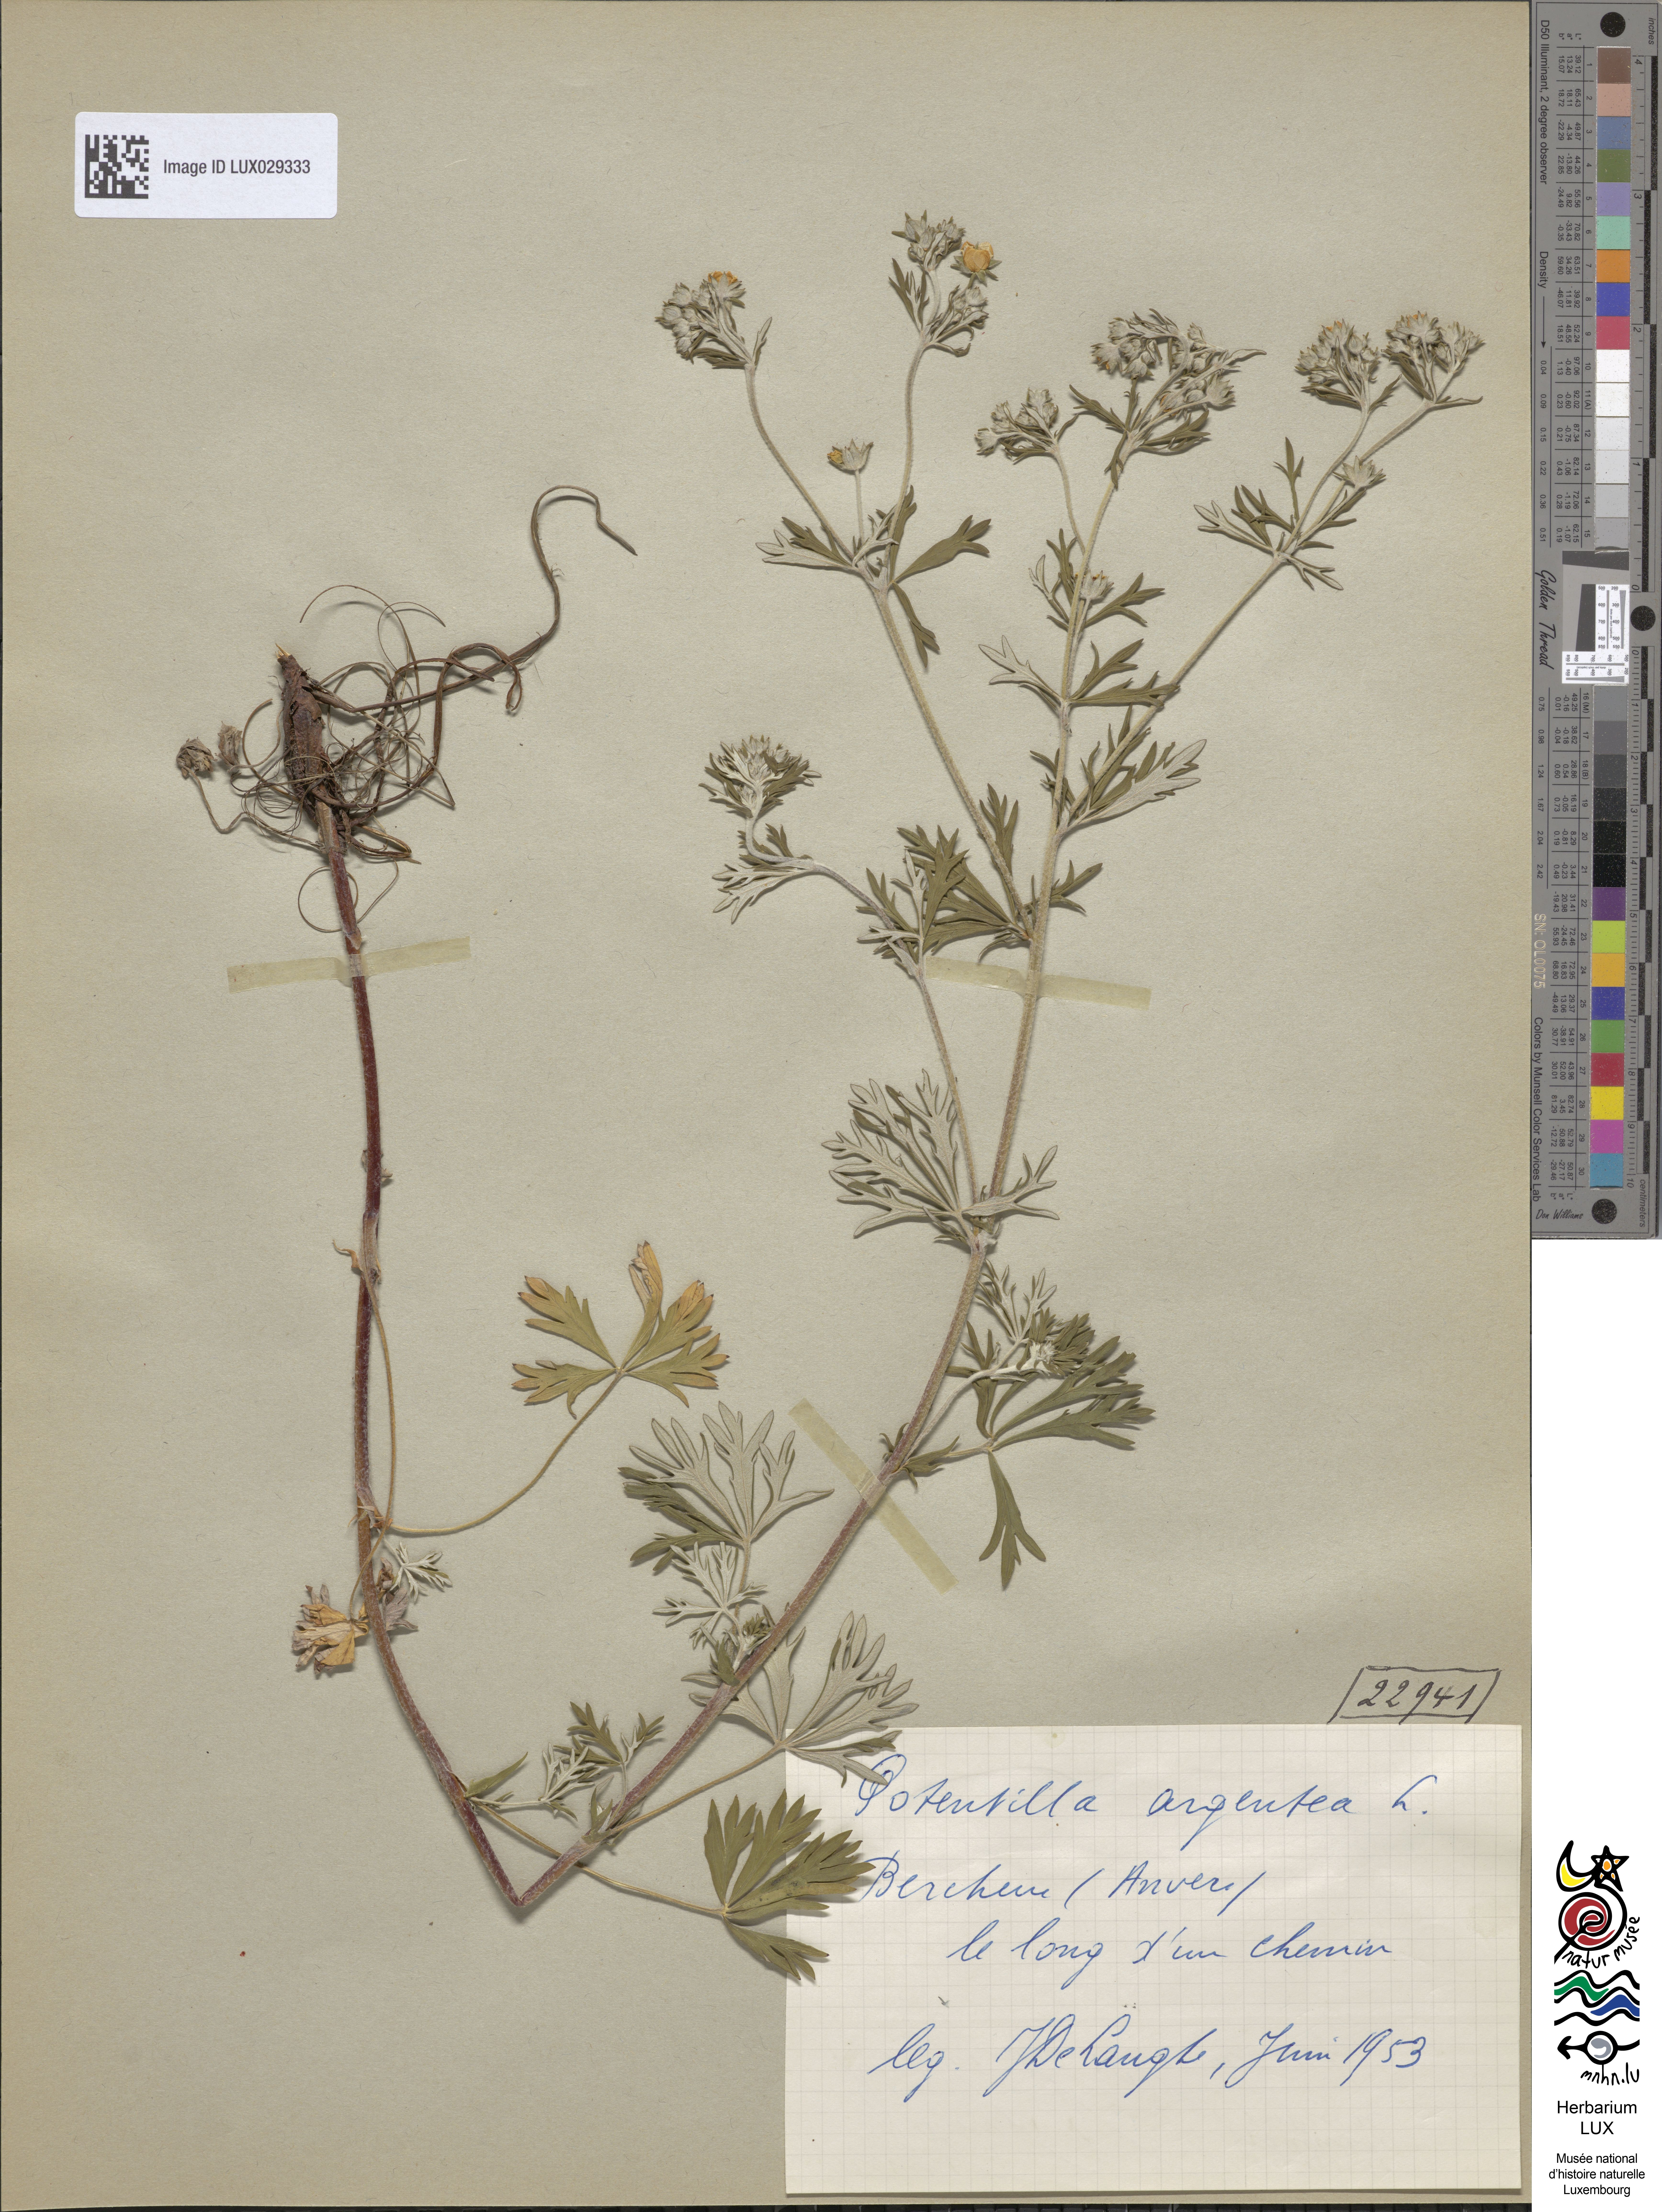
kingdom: Plantae
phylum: Tracheophyta
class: Magnoliopsida
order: Rosales
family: Rosaceae
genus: Potentilla
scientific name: Potentilla argentea
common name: Hoary cinquefoil
